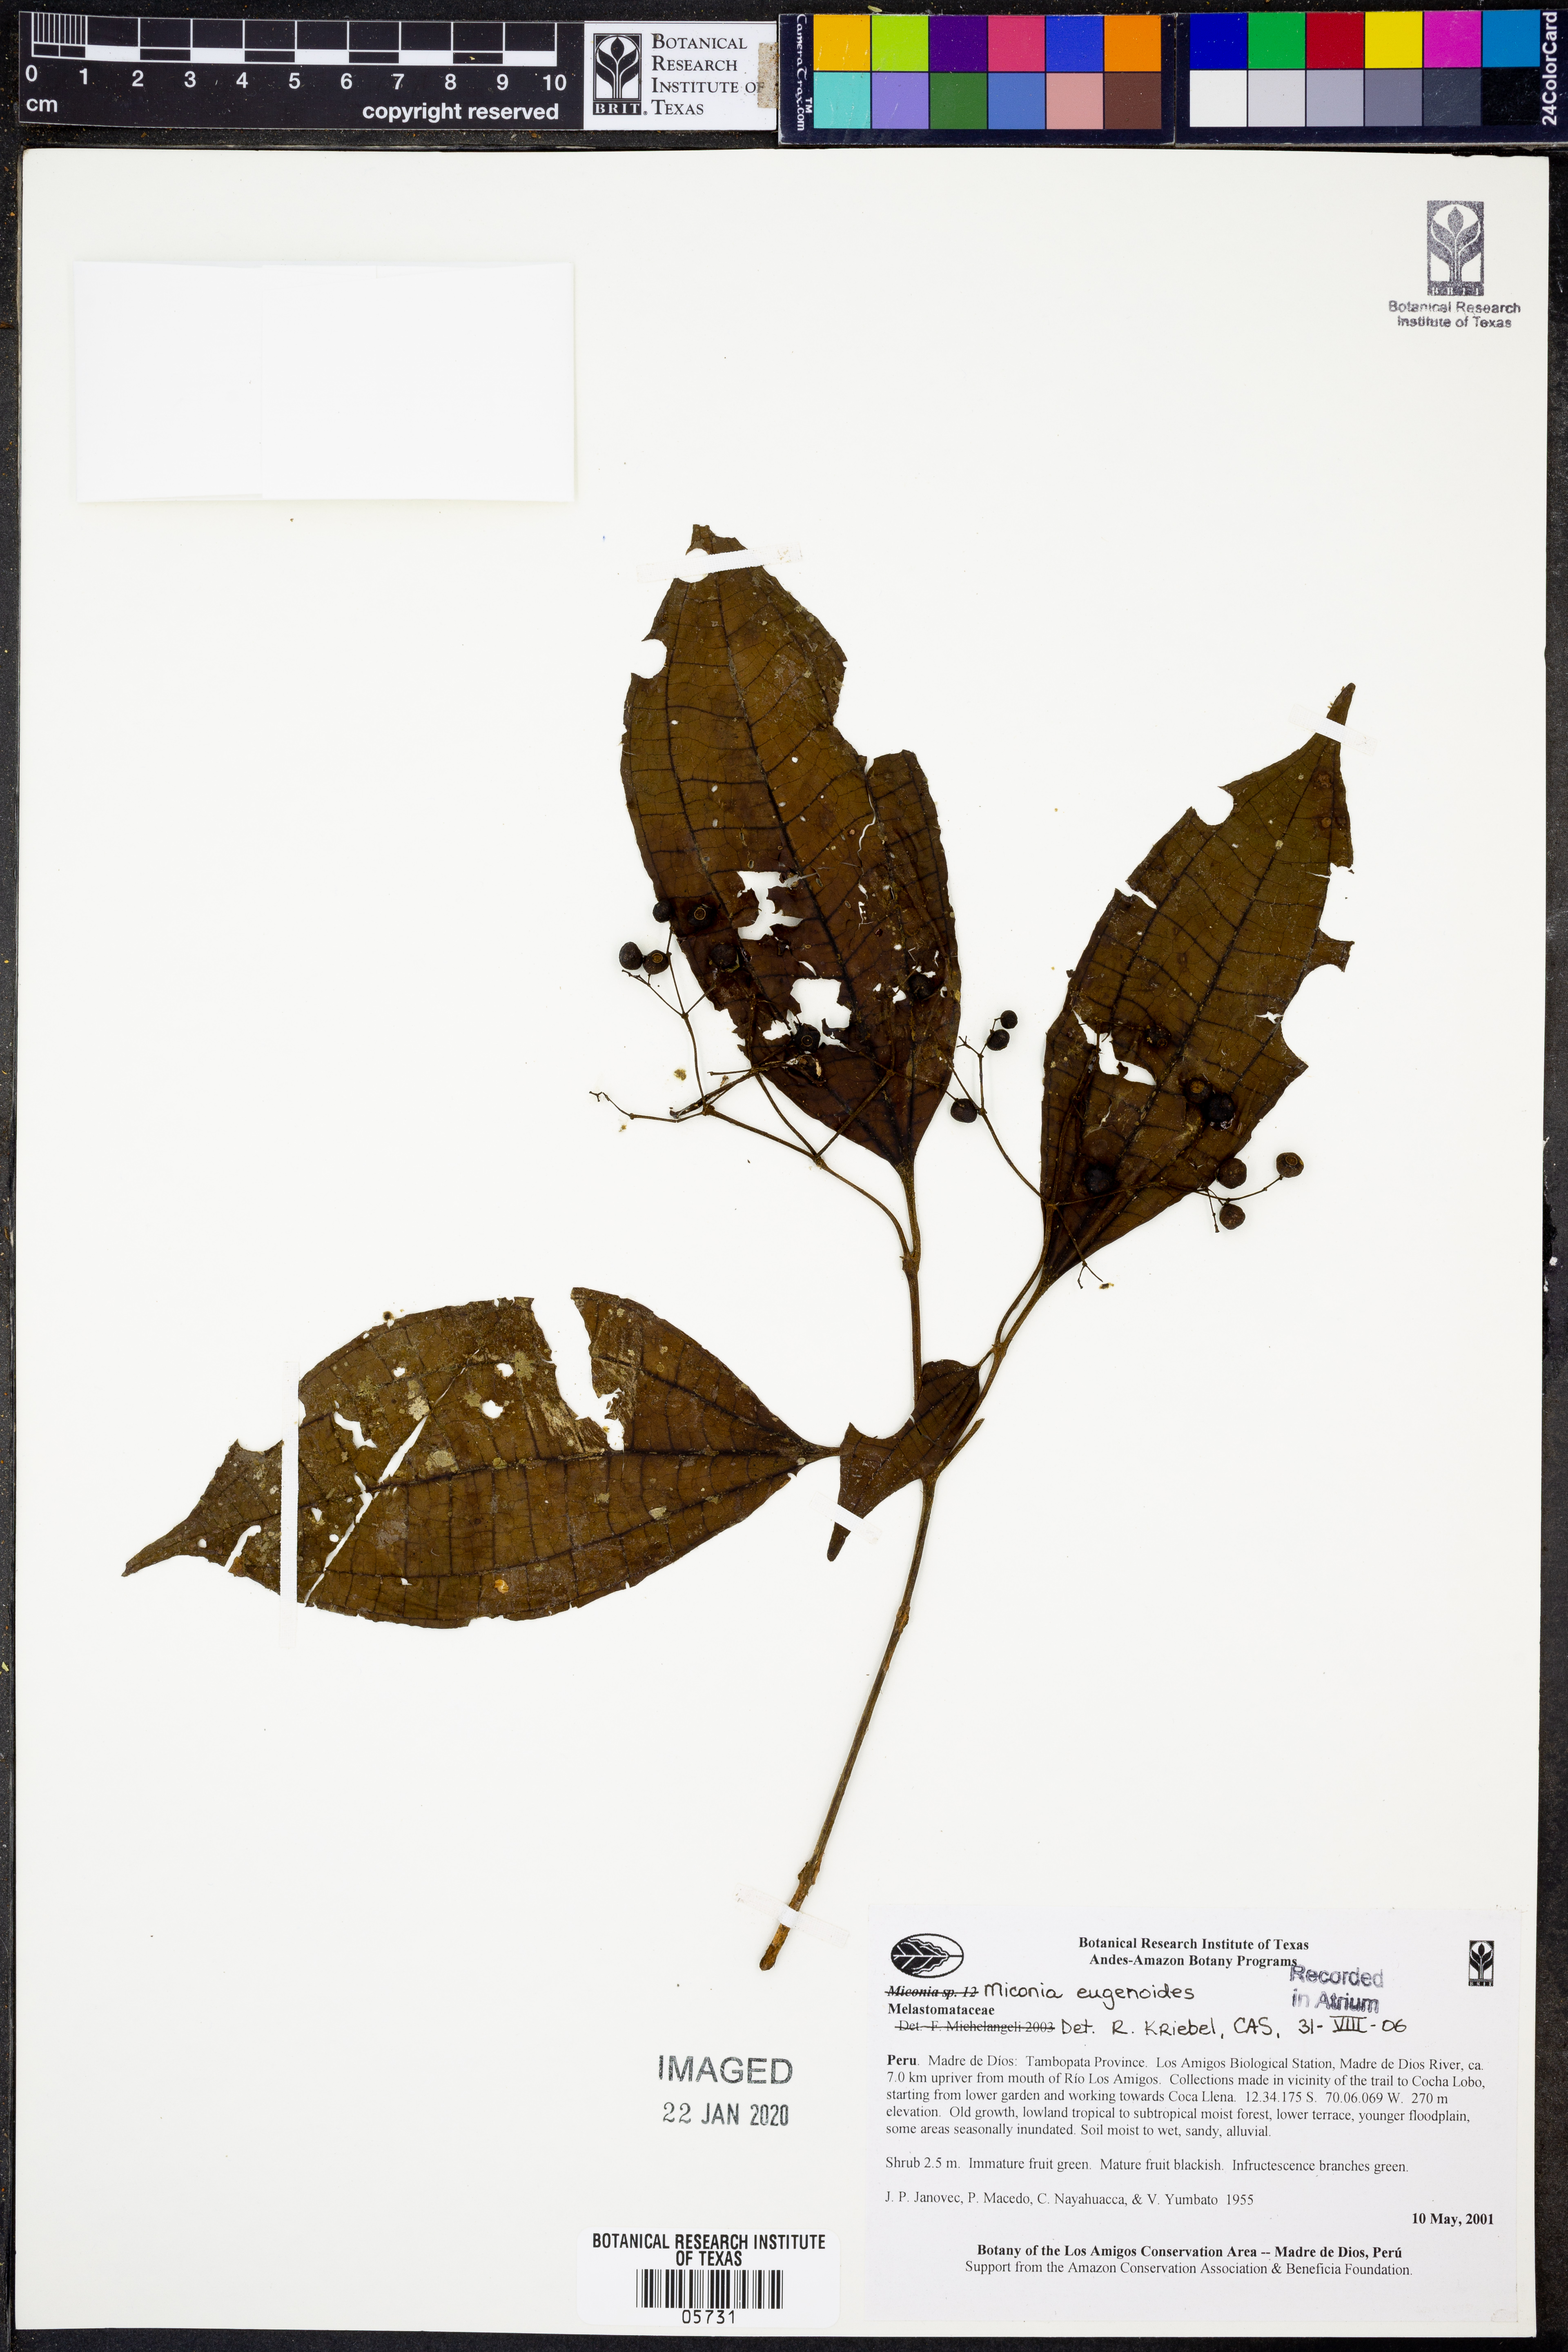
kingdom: Plantae
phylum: Tracheophyta
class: Magnoliopsida
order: Myrtales
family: Melastomataceae
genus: Miconia
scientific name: Miconia eugenioides
